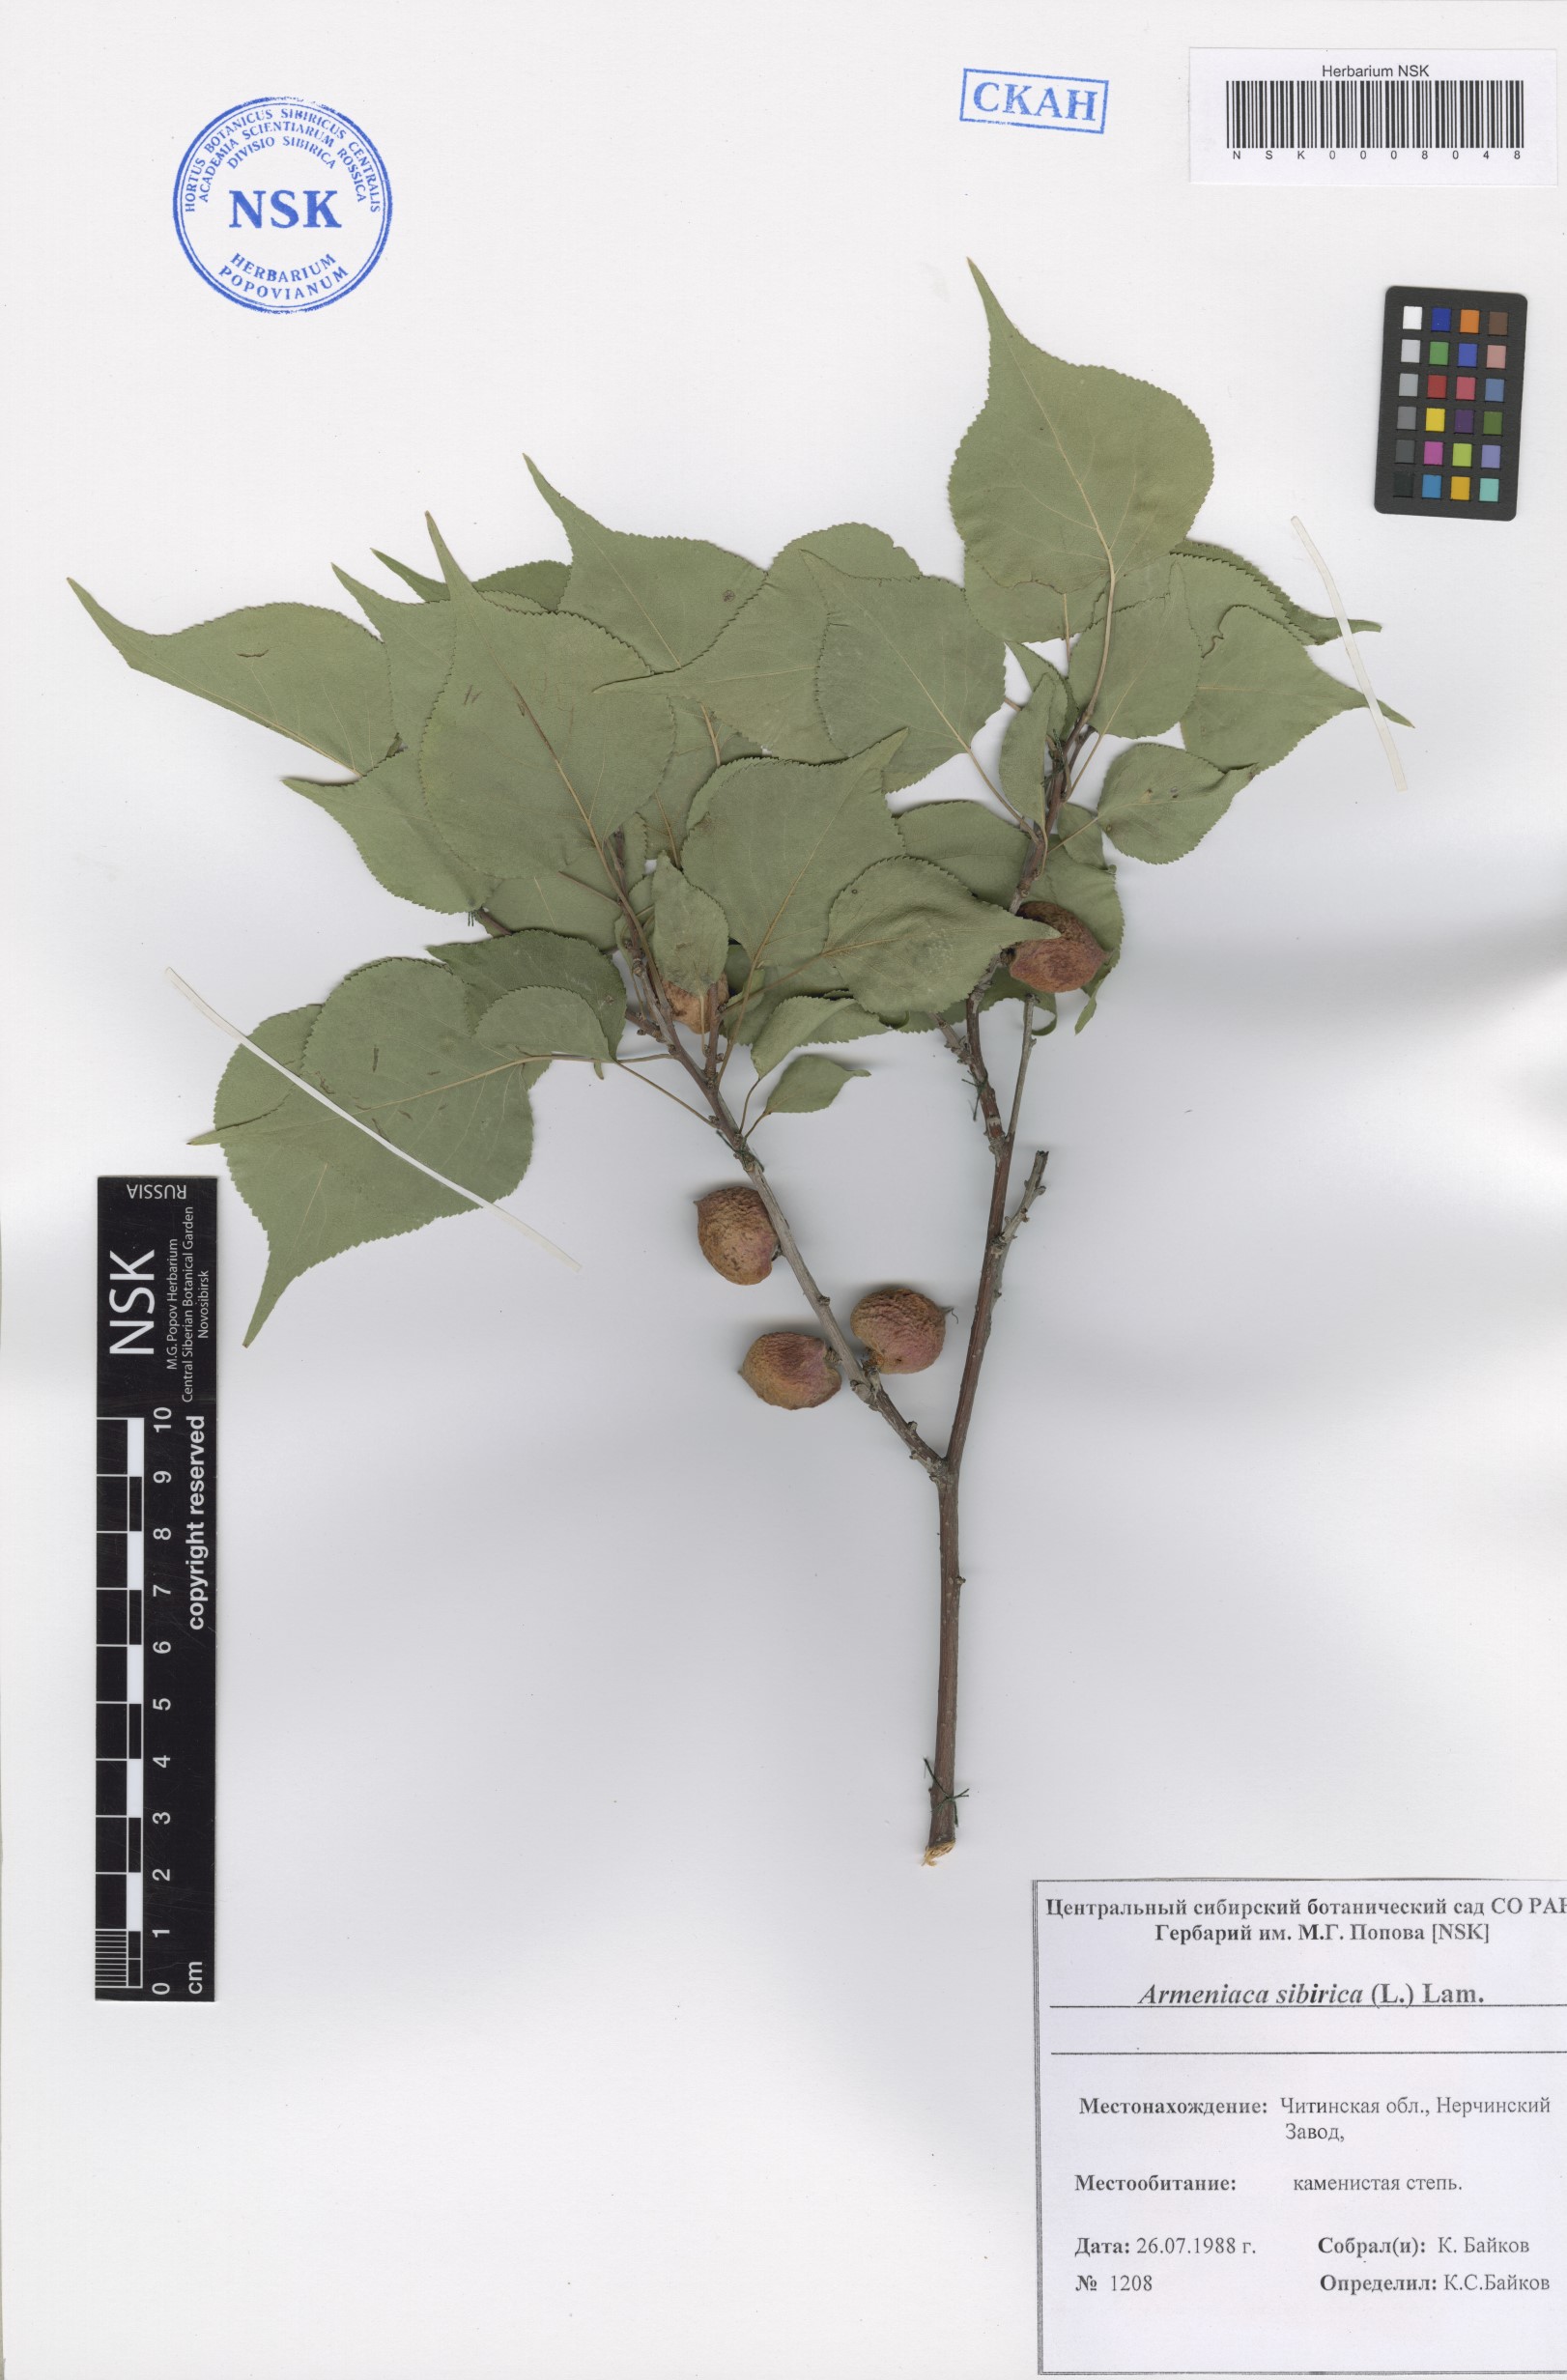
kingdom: Plantae
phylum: Tracheophyta
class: Magnoliopsida
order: Rosales
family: Rosaceae
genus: Prunus
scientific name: Prunus sibirica
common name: Siberian apricot
